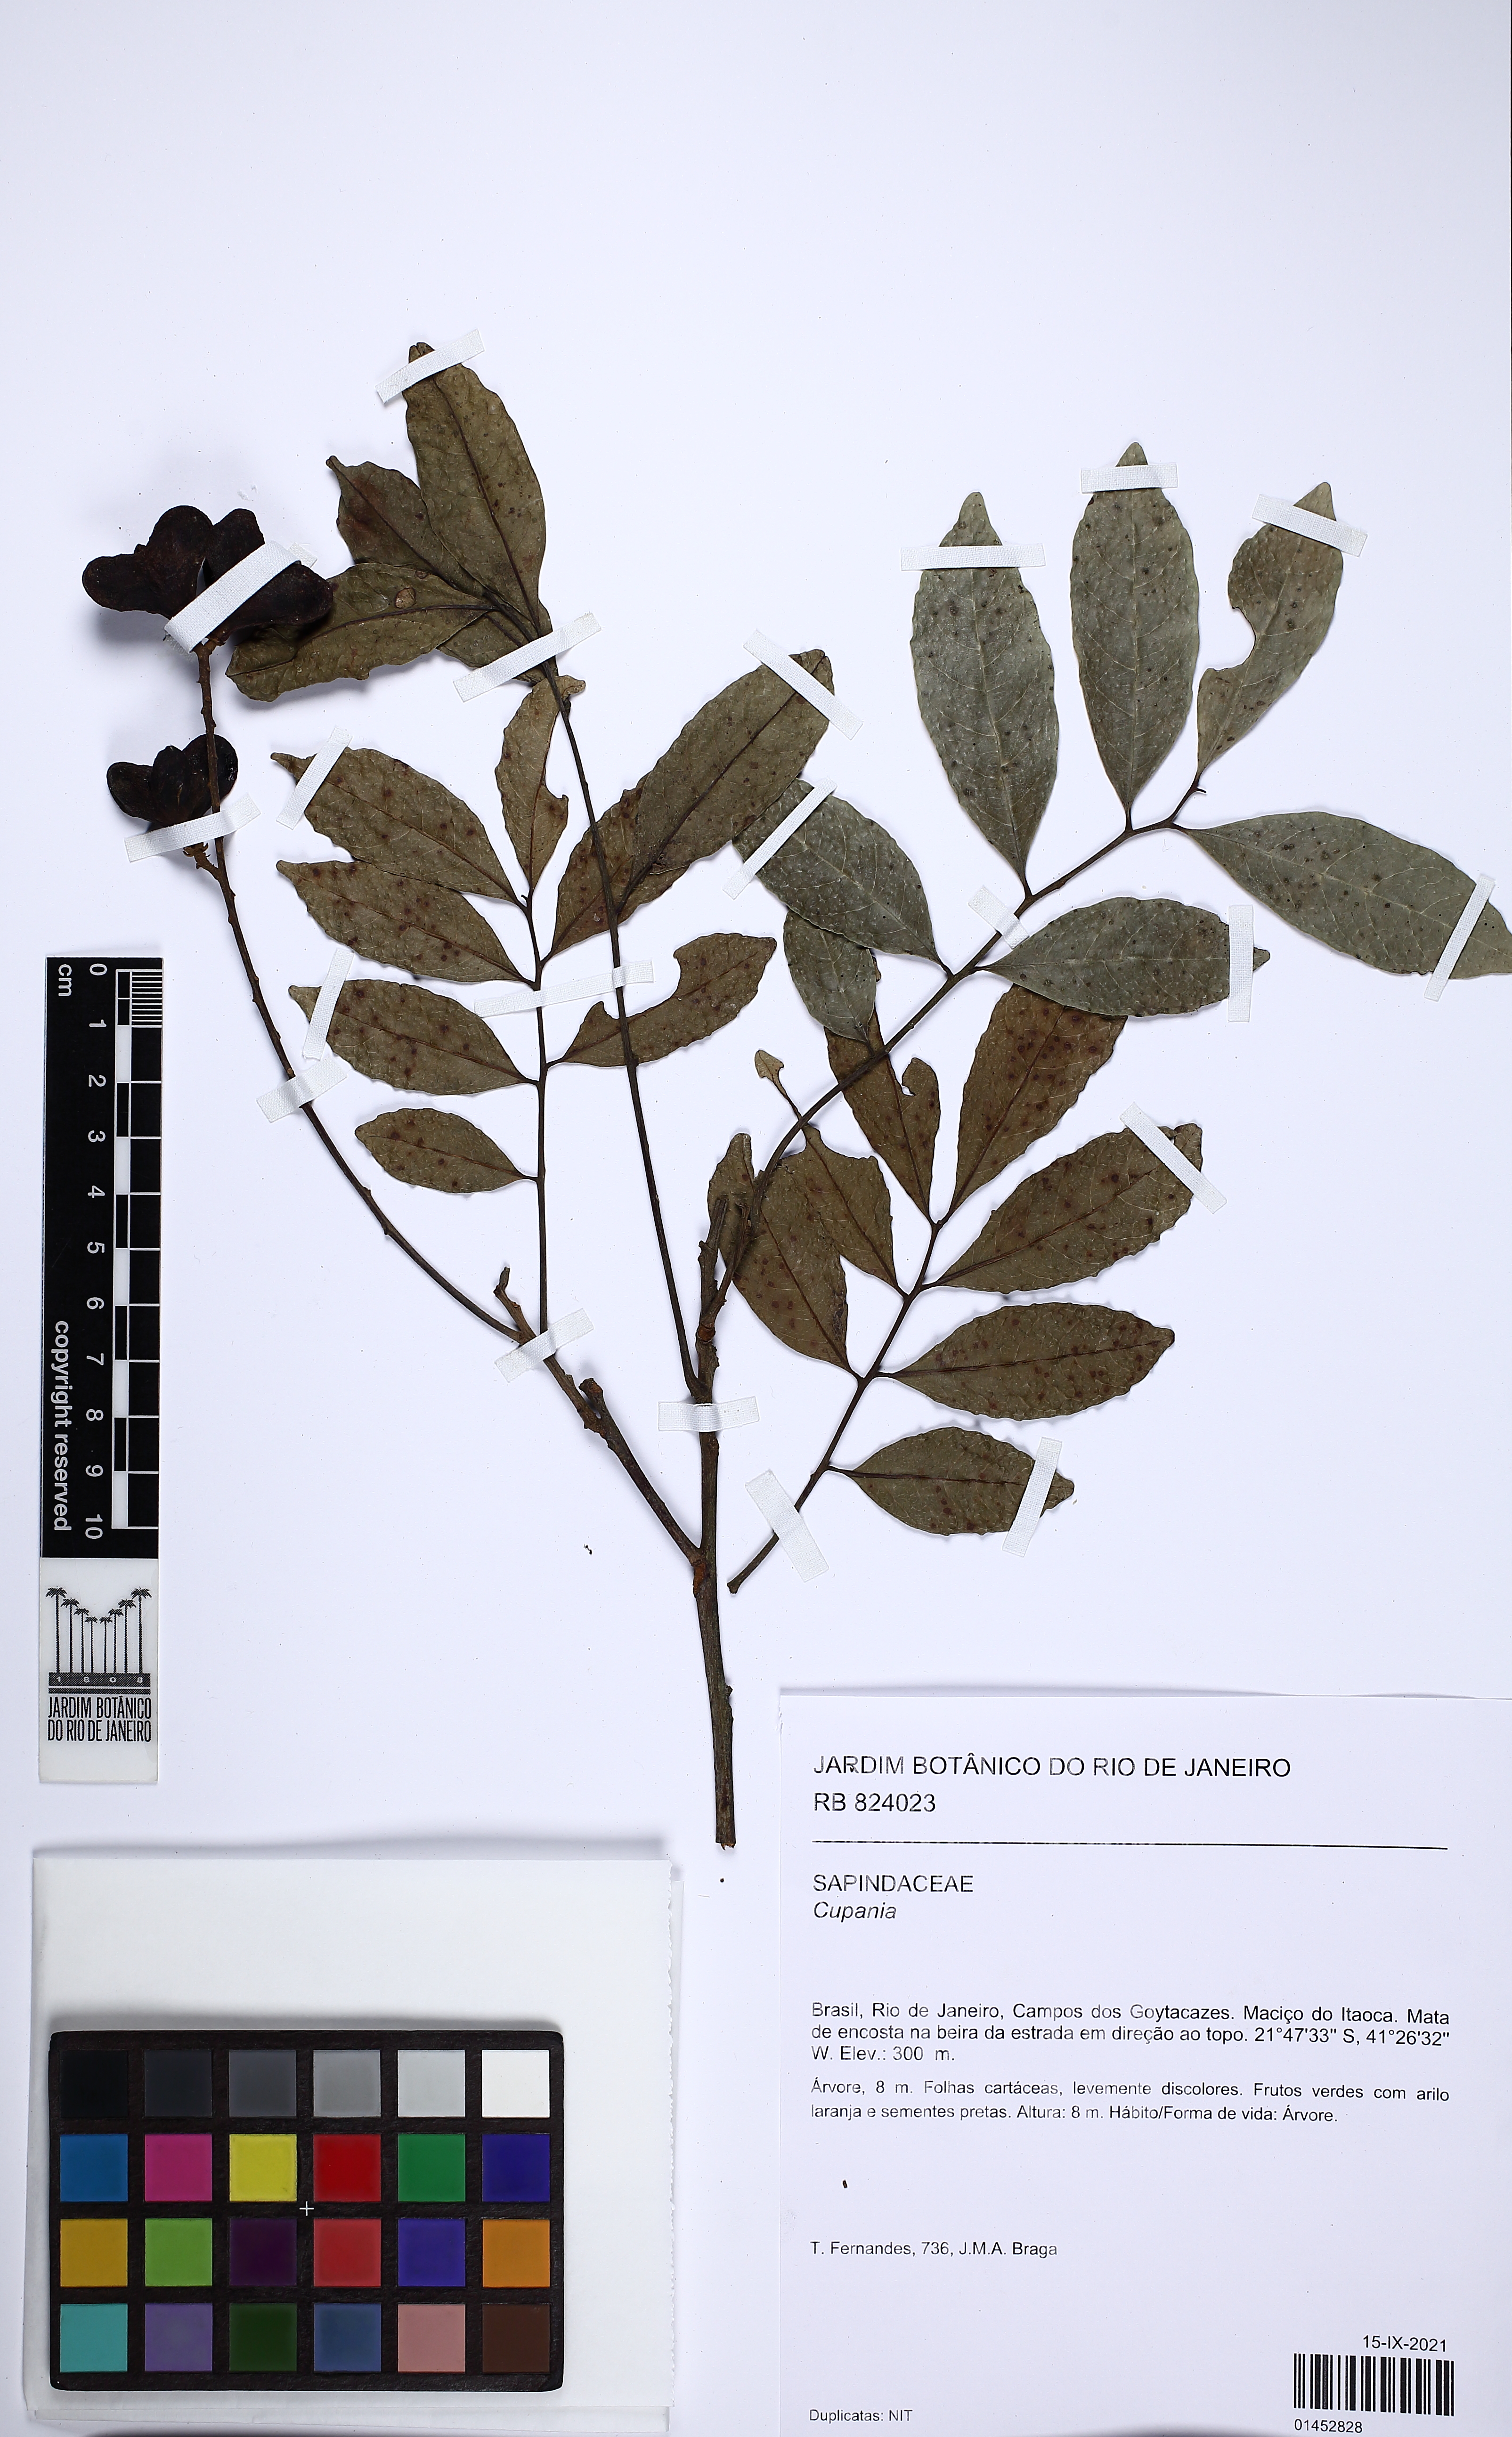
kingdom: Plantae
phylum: Tracheophyta
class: Magnoliopsida
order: Sapindales
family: Sapindaceae
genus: Cupania
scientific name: Cupania
